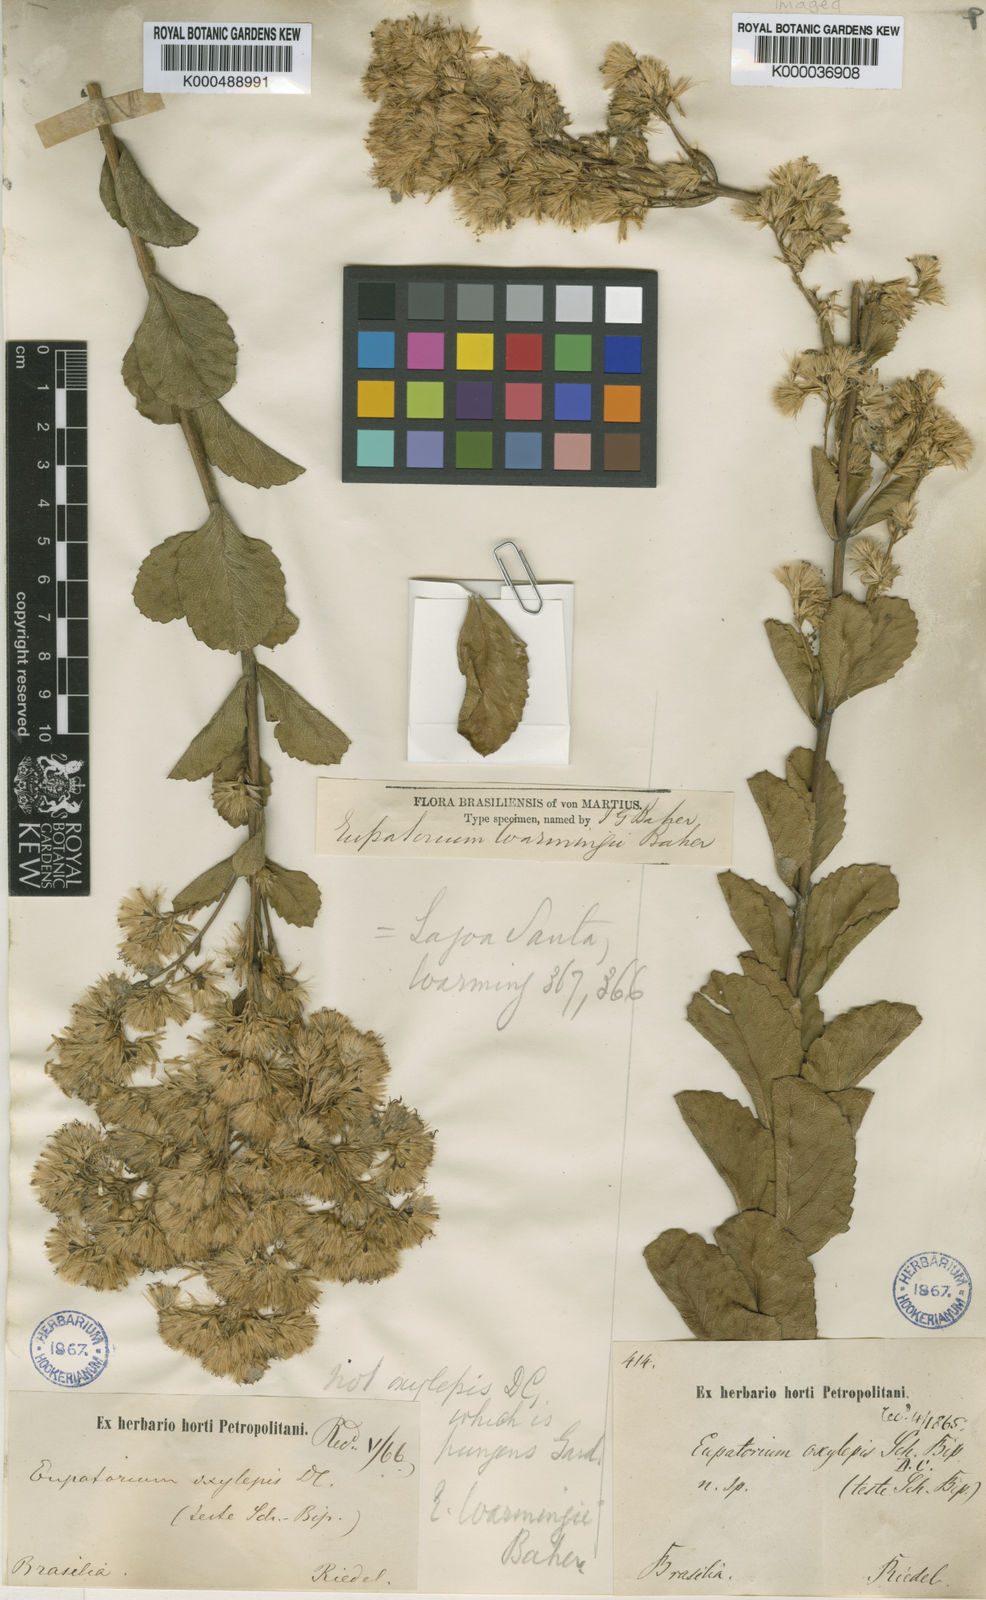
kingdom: Plantae
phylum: Tracheophyta
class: Magnoliopsida
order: Asterales
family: Asteraceae
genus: Stomatanthes
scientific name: Stomatanthes warmingii
